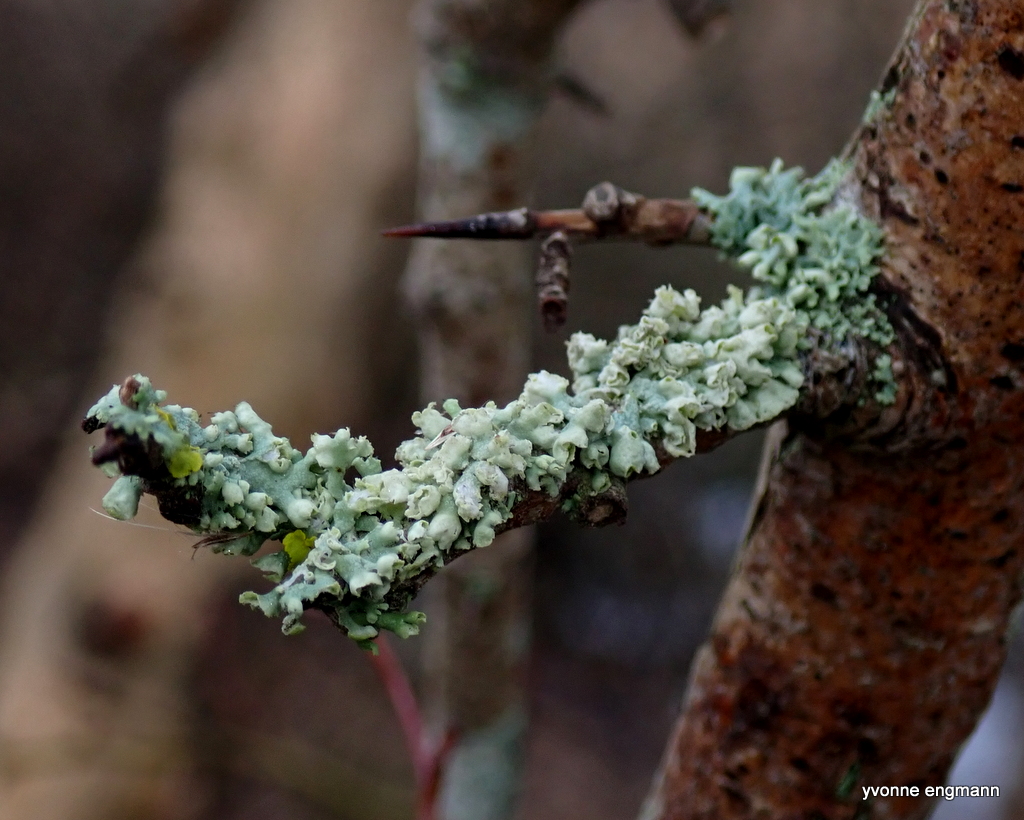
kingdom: Fungi
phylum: Ascomycota
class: Lecanoromycetes
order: Caliciales
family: Physciaceae
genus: Physcia
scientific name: Physcia adscendens
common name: hætte-rosetlav
